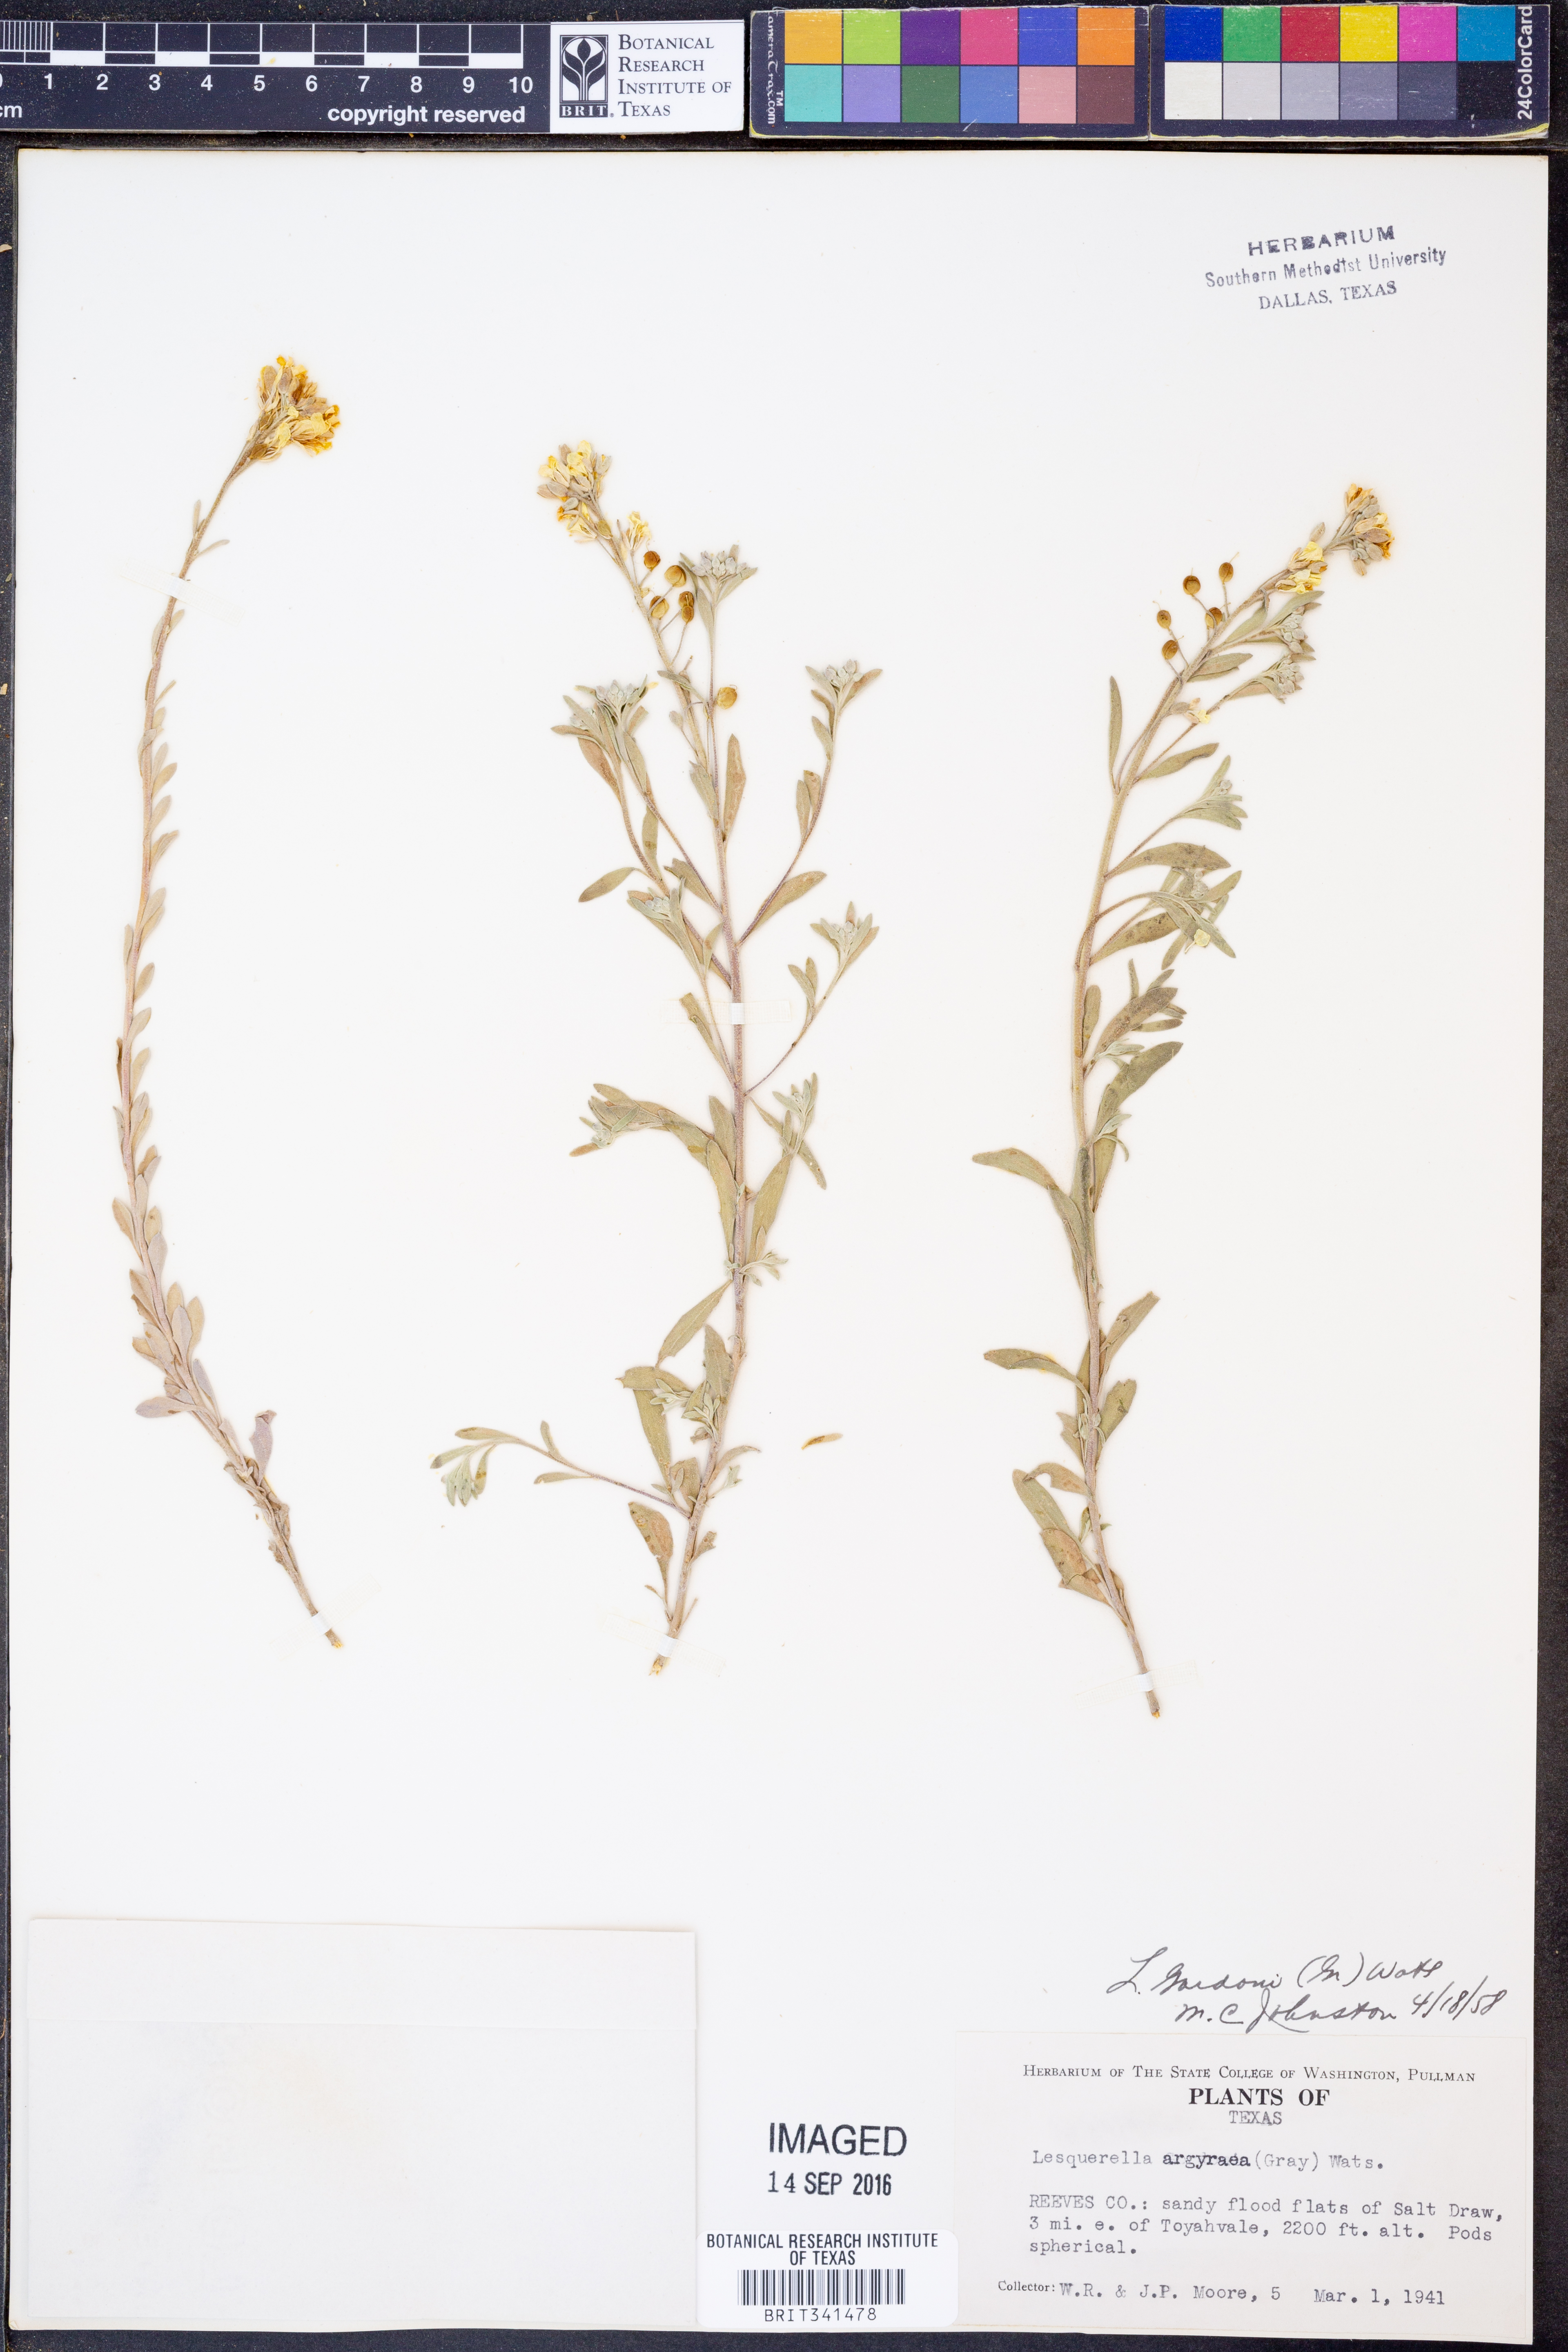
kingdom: Plantae
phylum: Tracheophyta
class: Magnoliopsida
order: Brassicales
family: Brassicaceae
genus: Physaria
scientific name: Physaria gordonii
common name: Gordon's bladderpod
